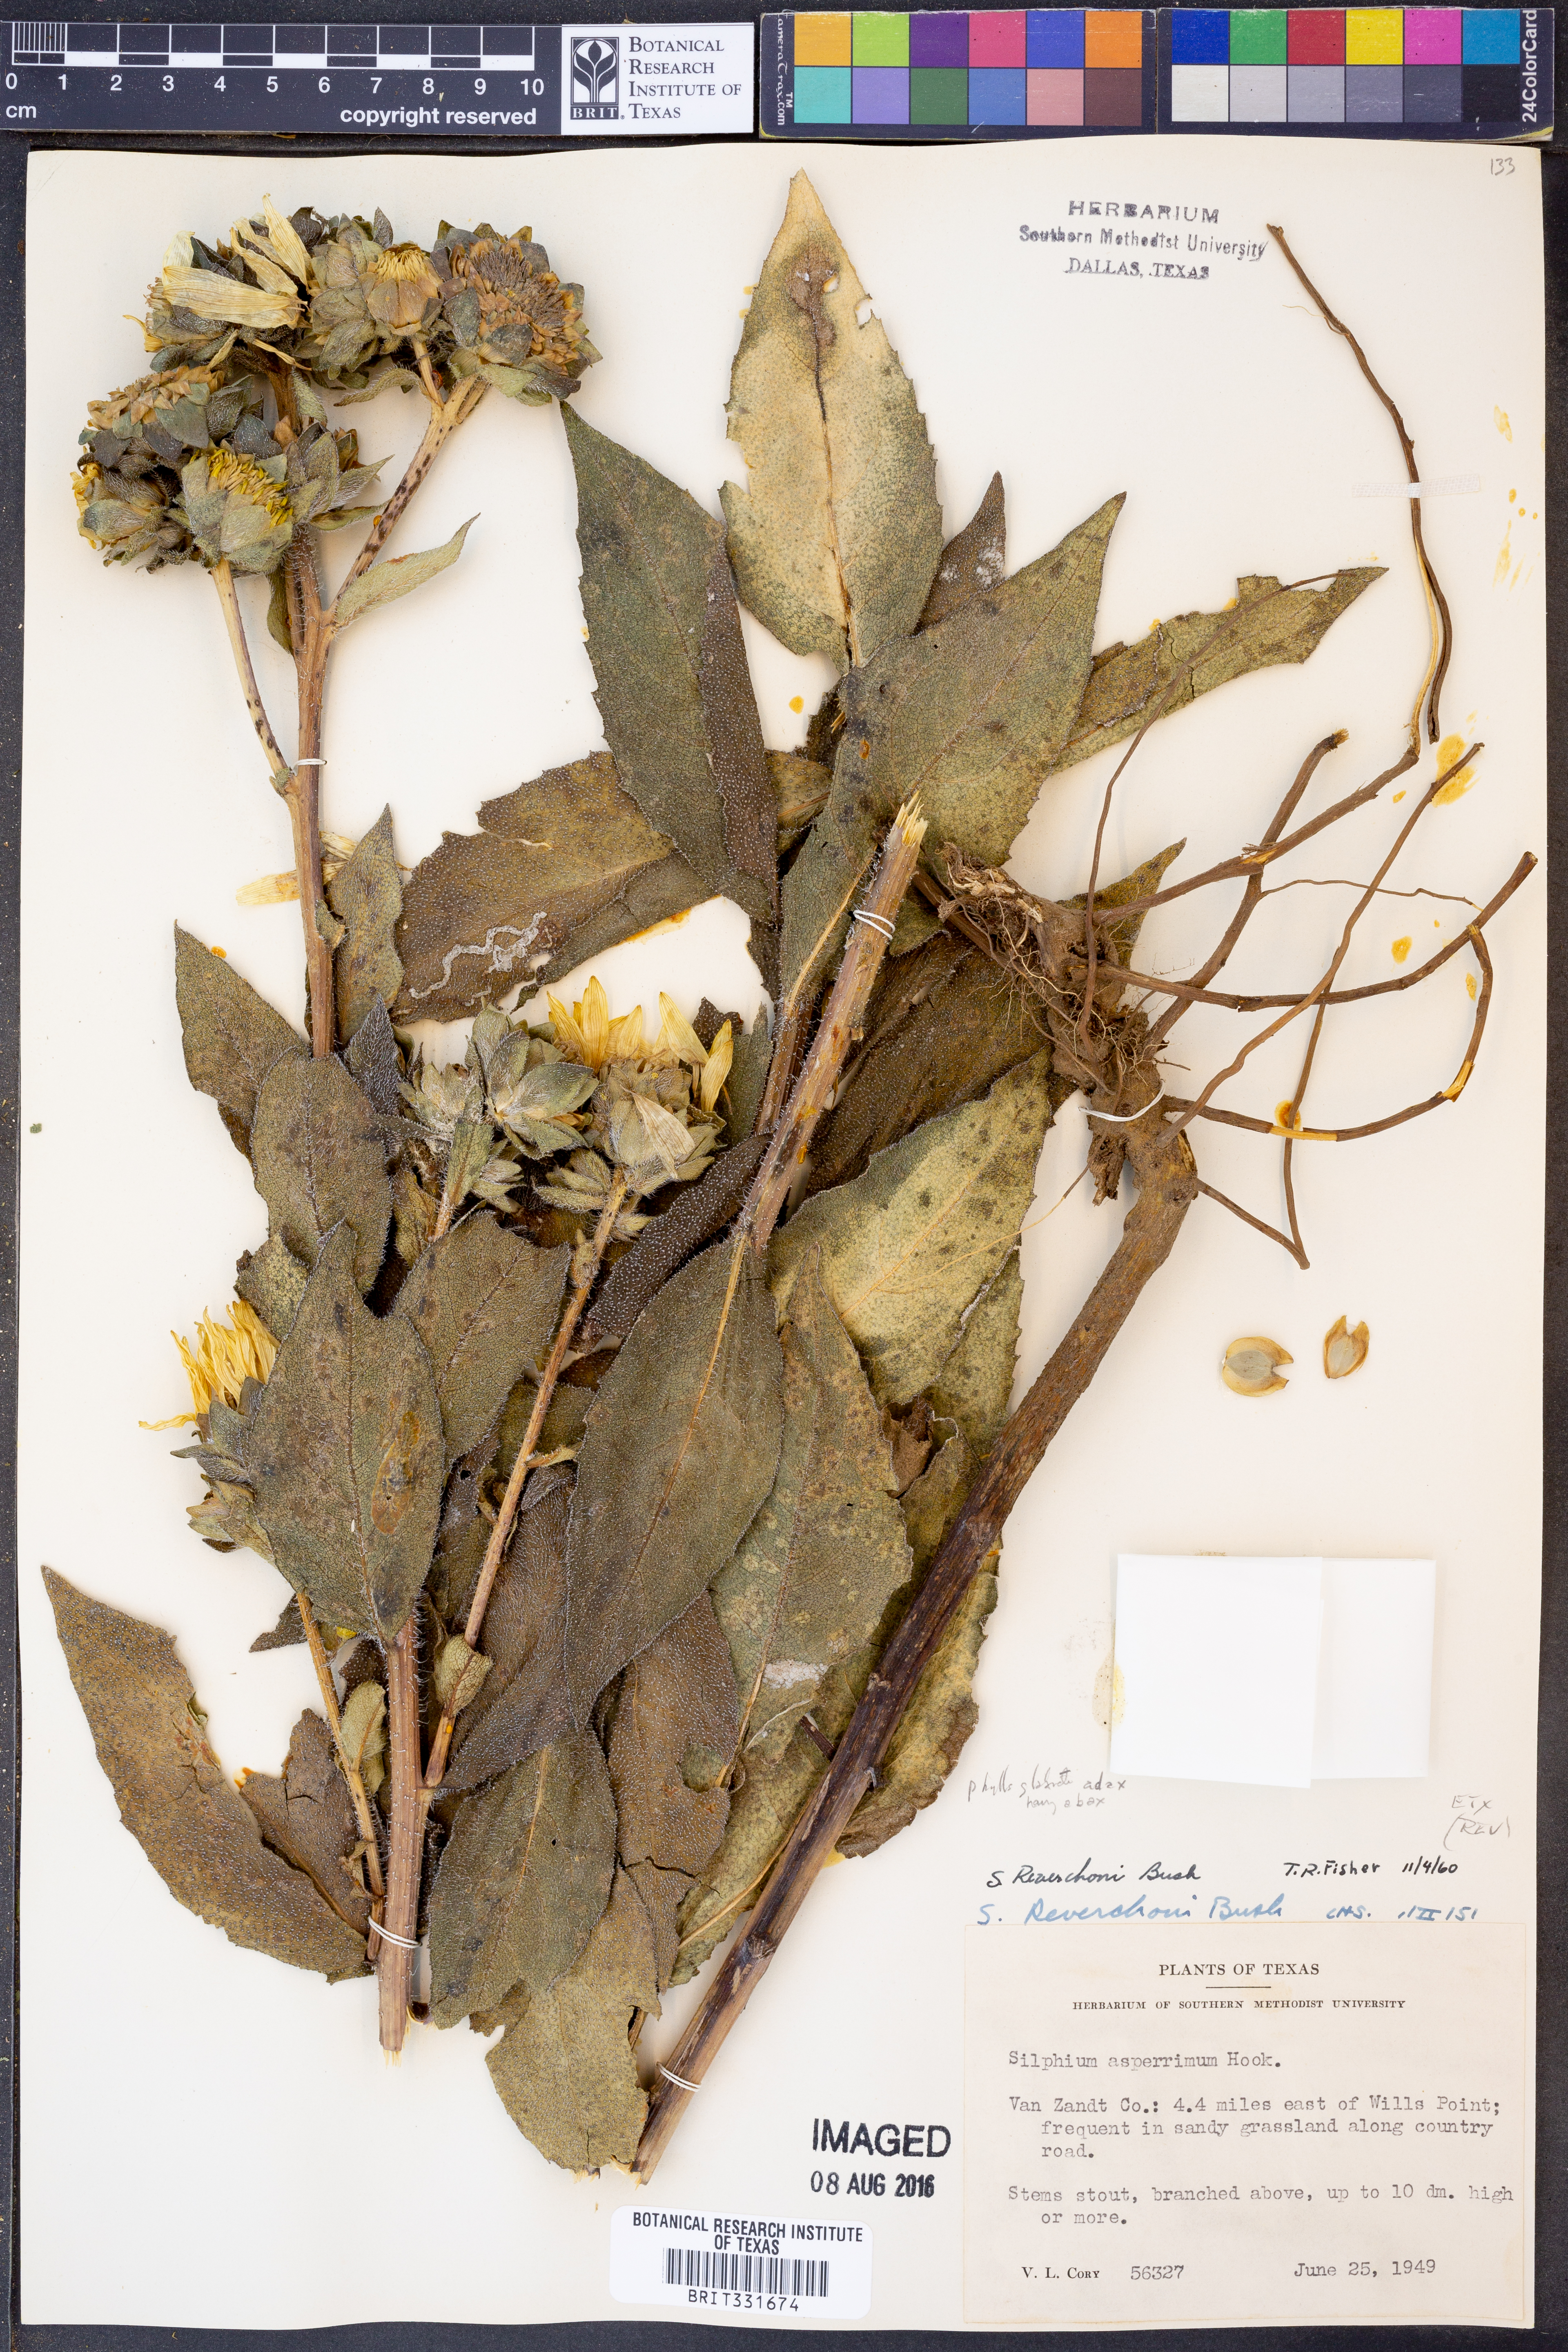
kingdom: Plantae
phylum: Tracheophyta
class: Magnoliopsida
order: Asterales
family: Asteraceae
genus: Silphium
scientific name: Silphium radula
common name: Roughleaf rosinweed
